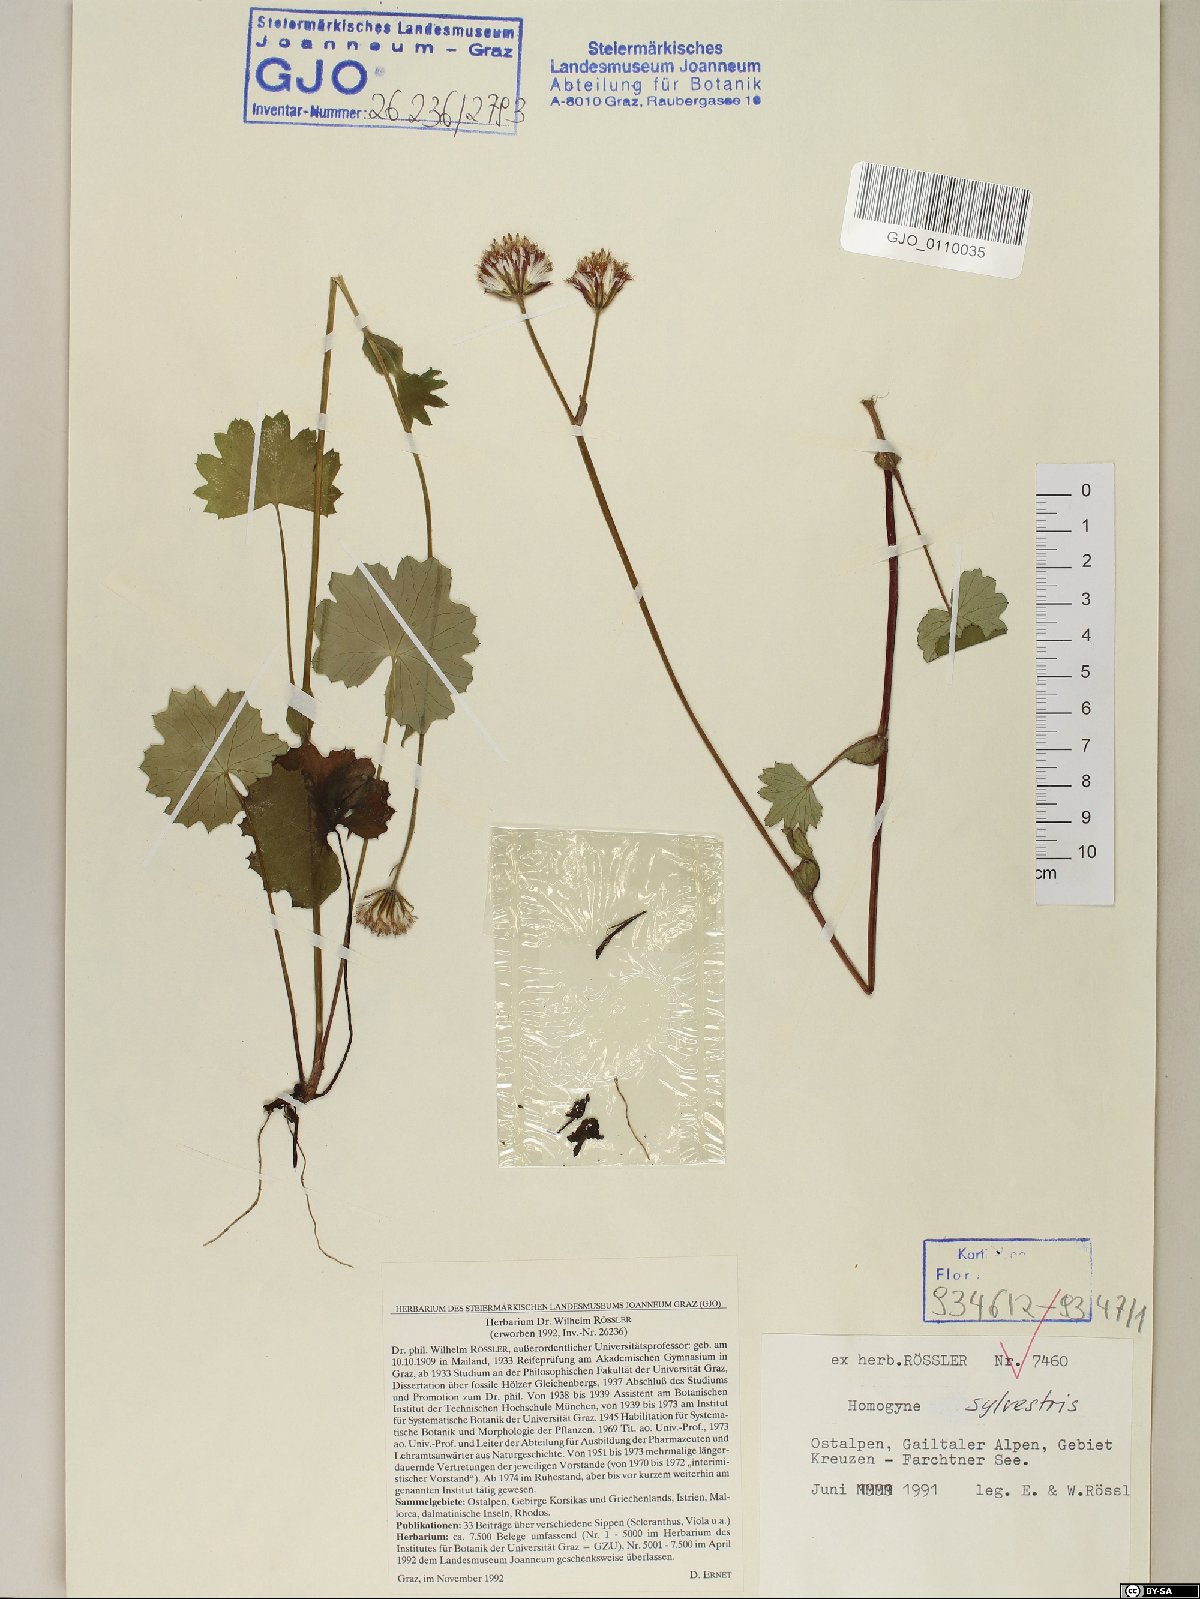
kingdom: Plantae
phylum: Tracheophyta
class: Magnoliopsida
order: Asterales
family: Asteraceae
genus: Homogyne
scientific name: Homogyne sylvestris
